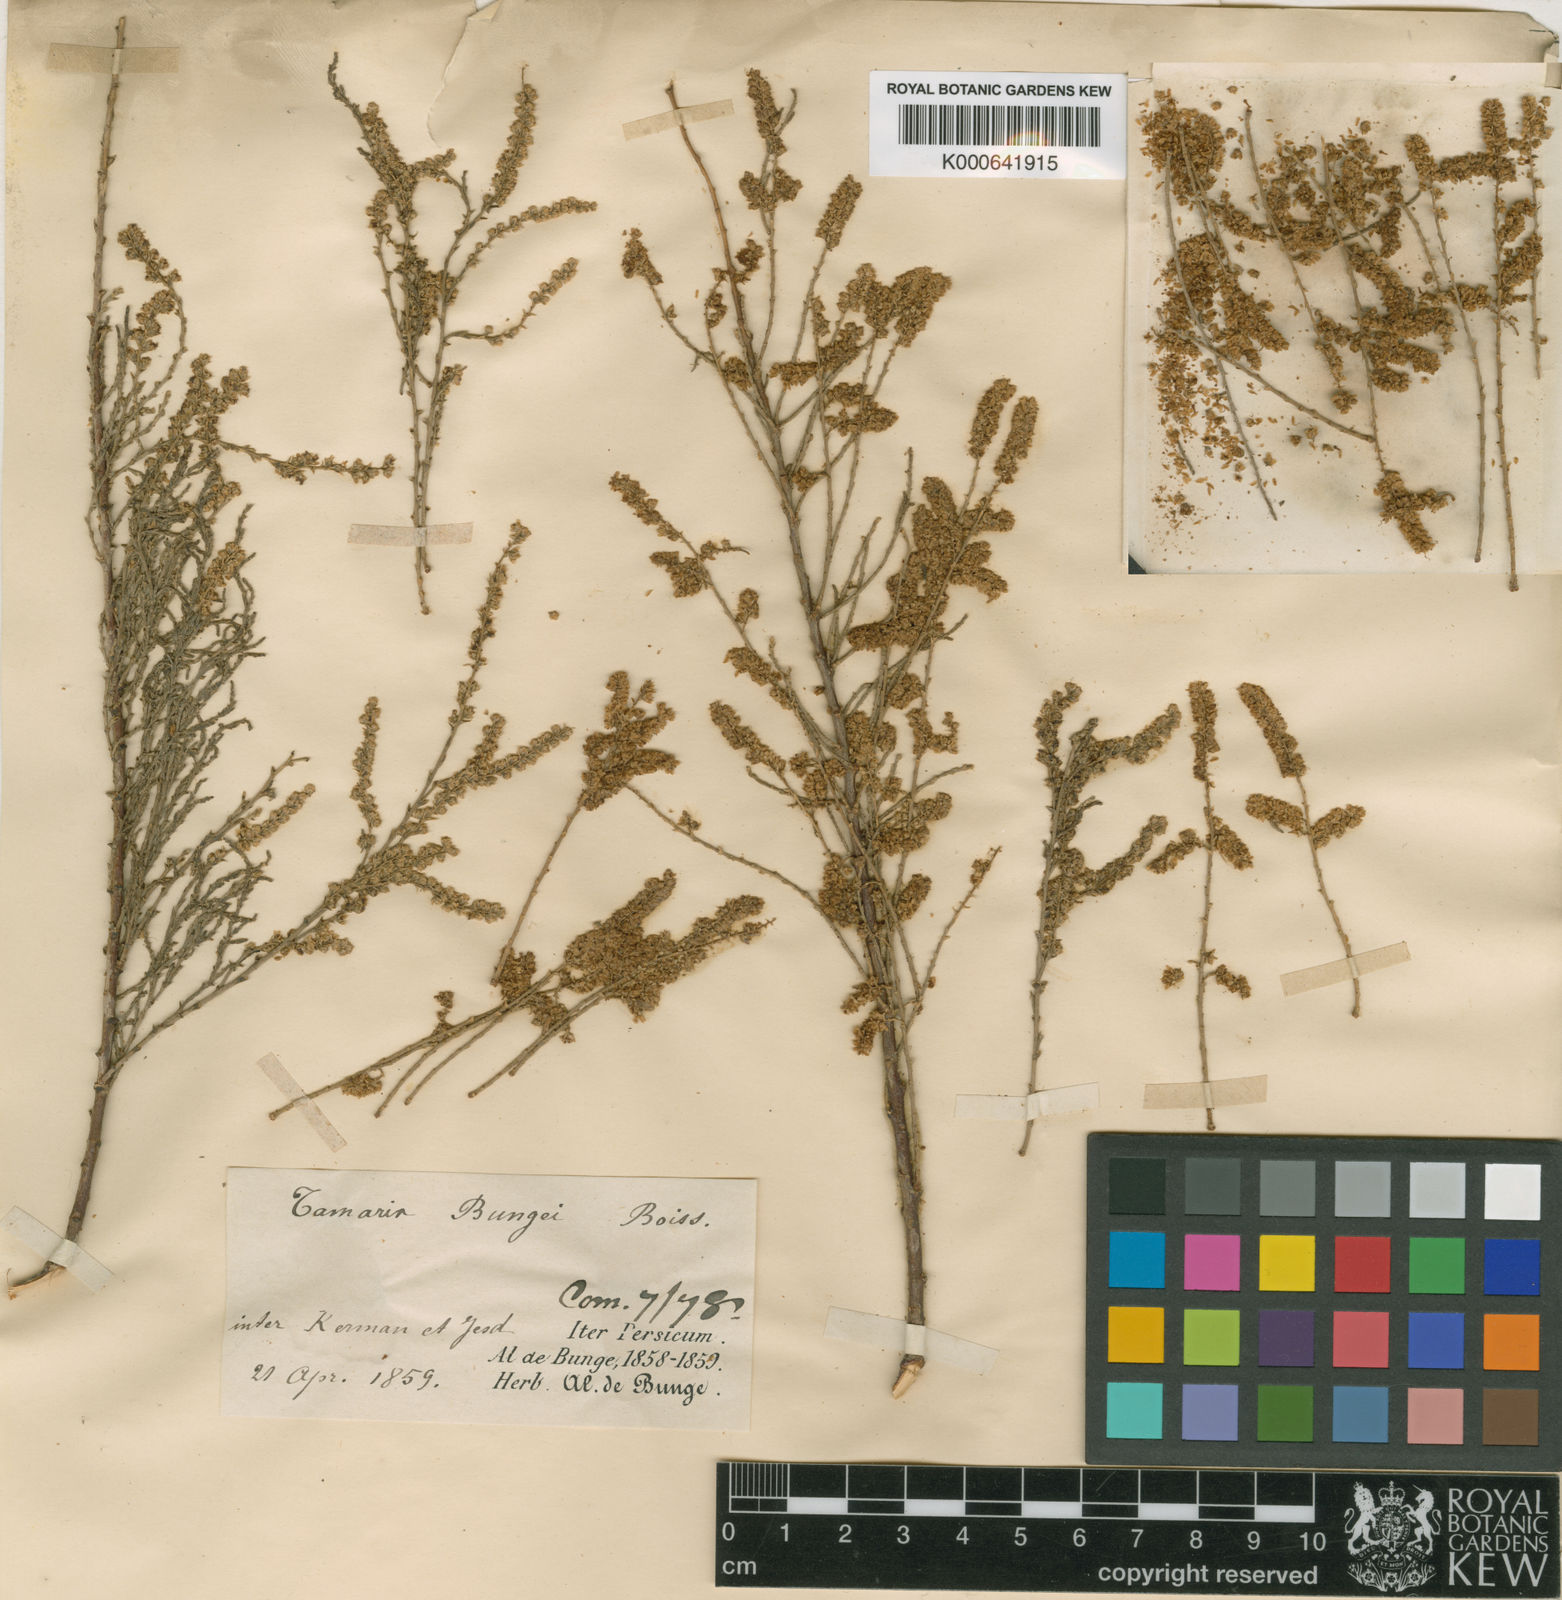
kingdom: Plantae
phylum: Tracheophyta
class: Magnoliopsida
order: Caryophyllales
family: Tamaricaceae
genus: Tamarix
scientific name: Tamarix aralensis
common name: Russian tamarisk
